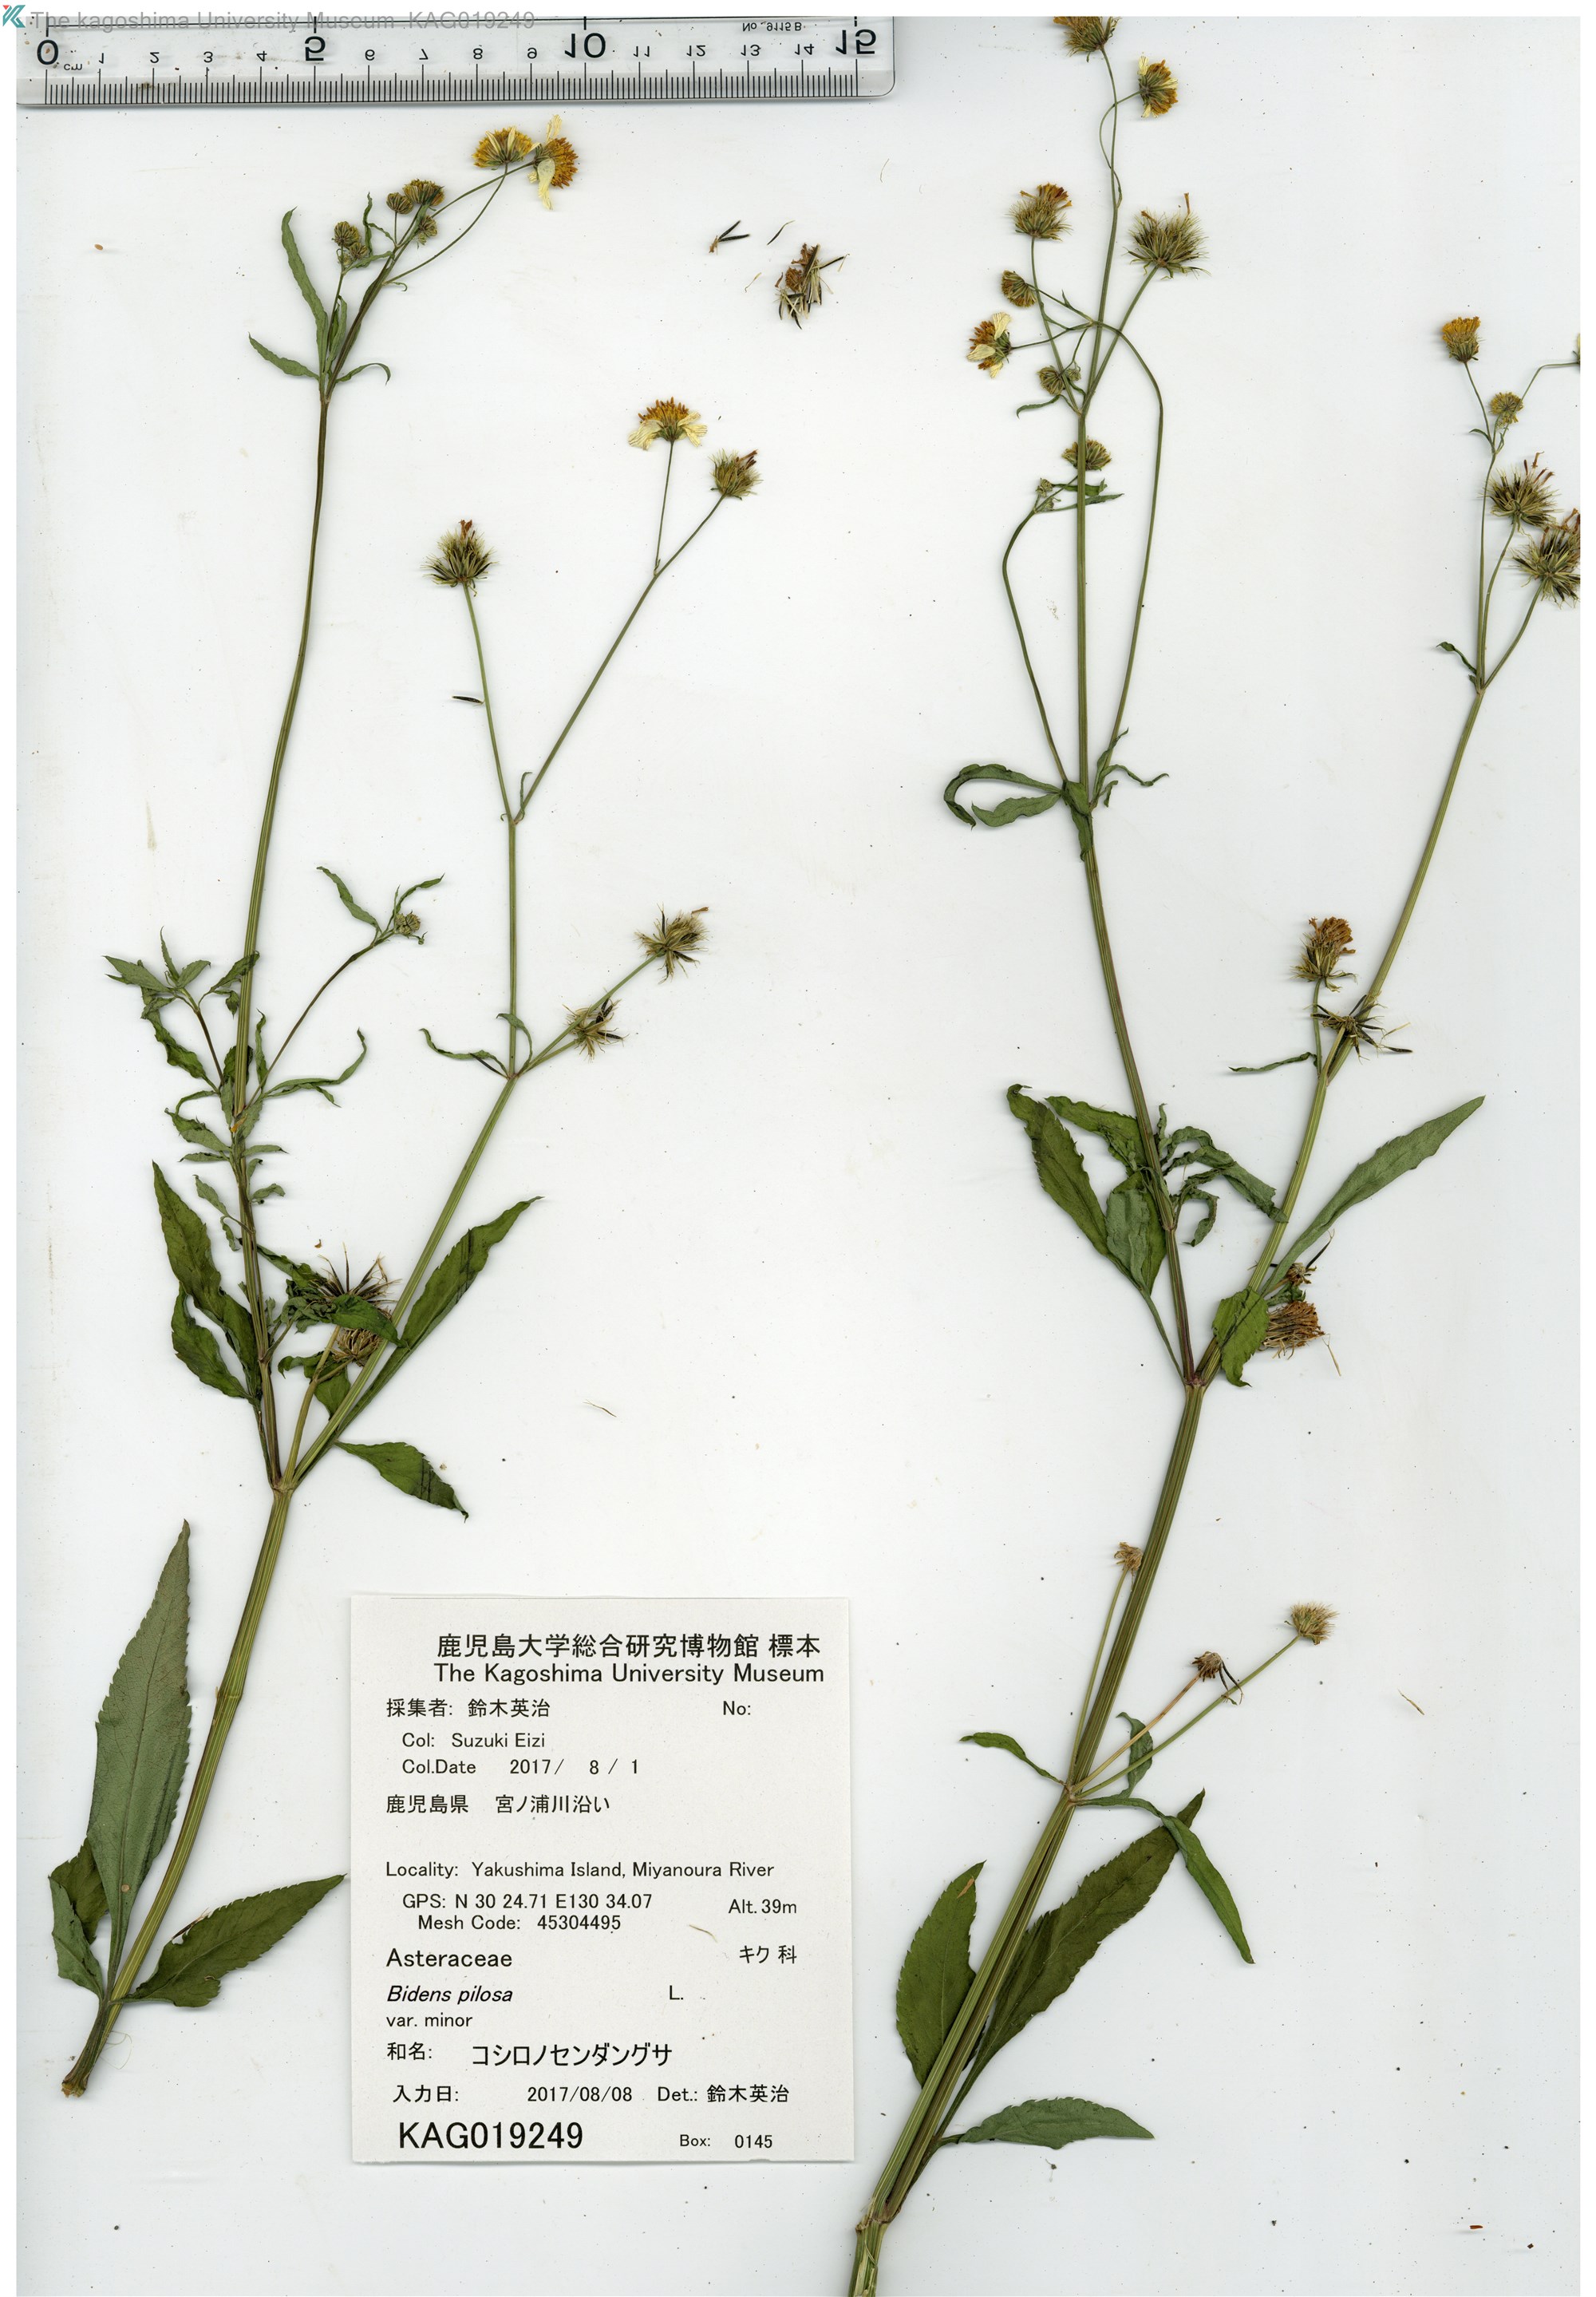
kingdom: Plantae
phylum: Tracheophyta
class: Magnoliopsida
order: Asterales
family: Asteraceae
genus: Bidens
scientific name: Bidens pilosa
